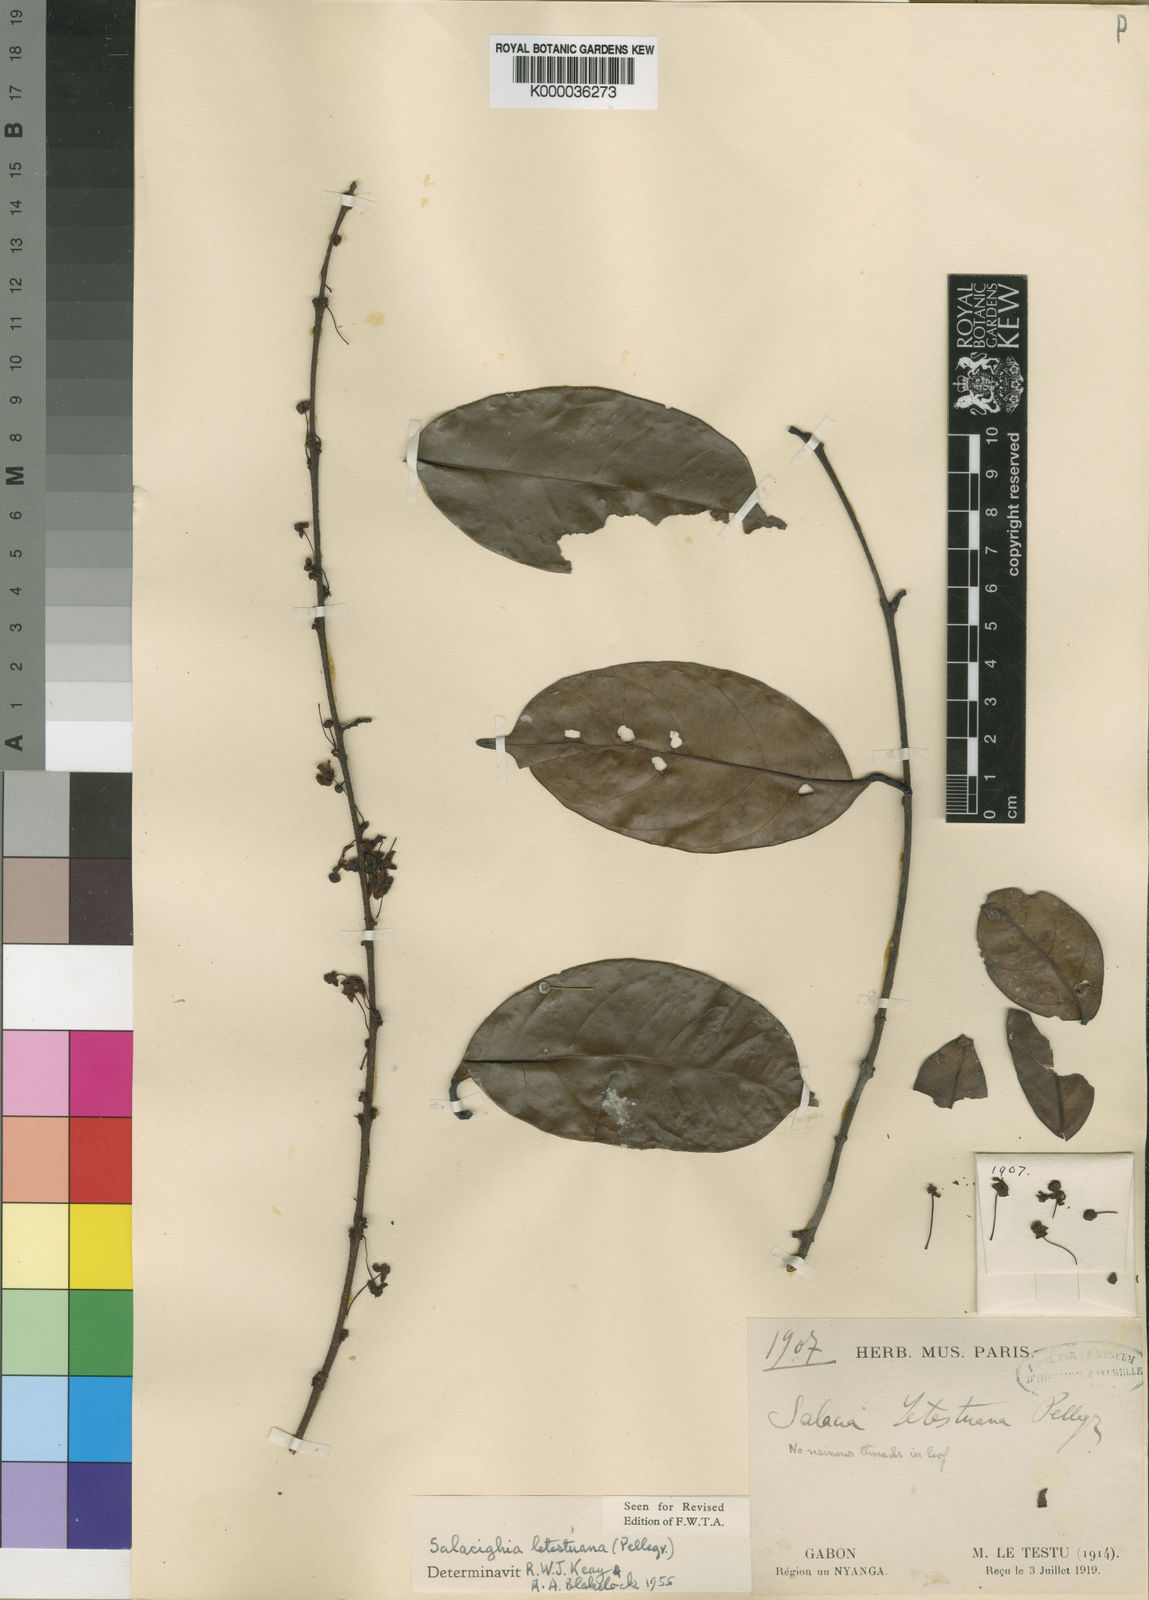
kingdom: Plantae
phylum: Tracheophyta
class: Magnoliopsida
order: Celastrales
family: Celastraceae
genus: Salacighia
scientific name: Salacighia letestuana
